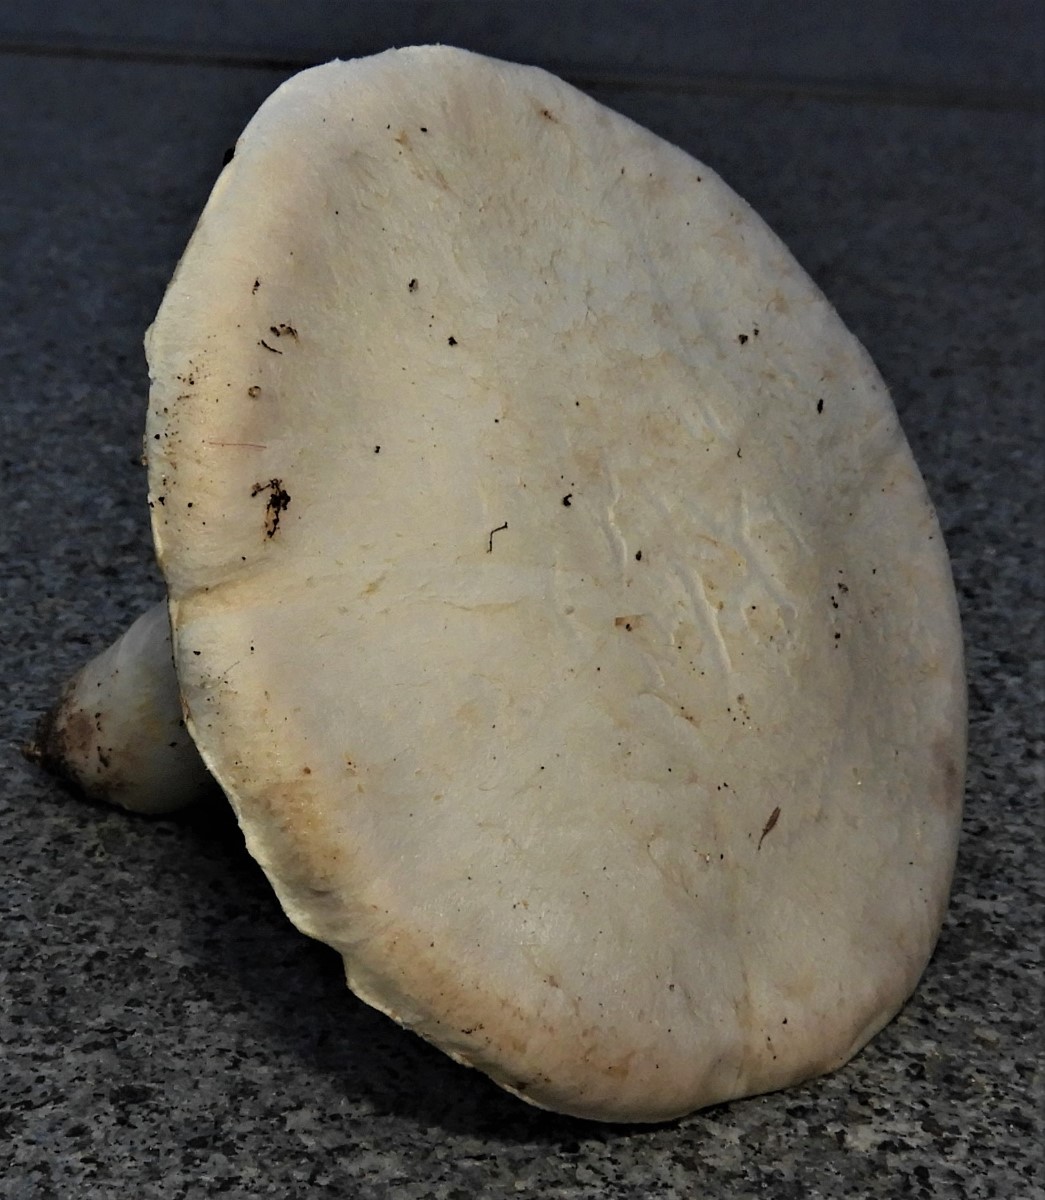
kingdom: Fungi
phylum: Basidiomycota
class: Agaricomycetes
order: Agaricales
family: Agaricaceae
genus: Agaricus
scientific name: Agaricus campestris
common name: mark-champignon
